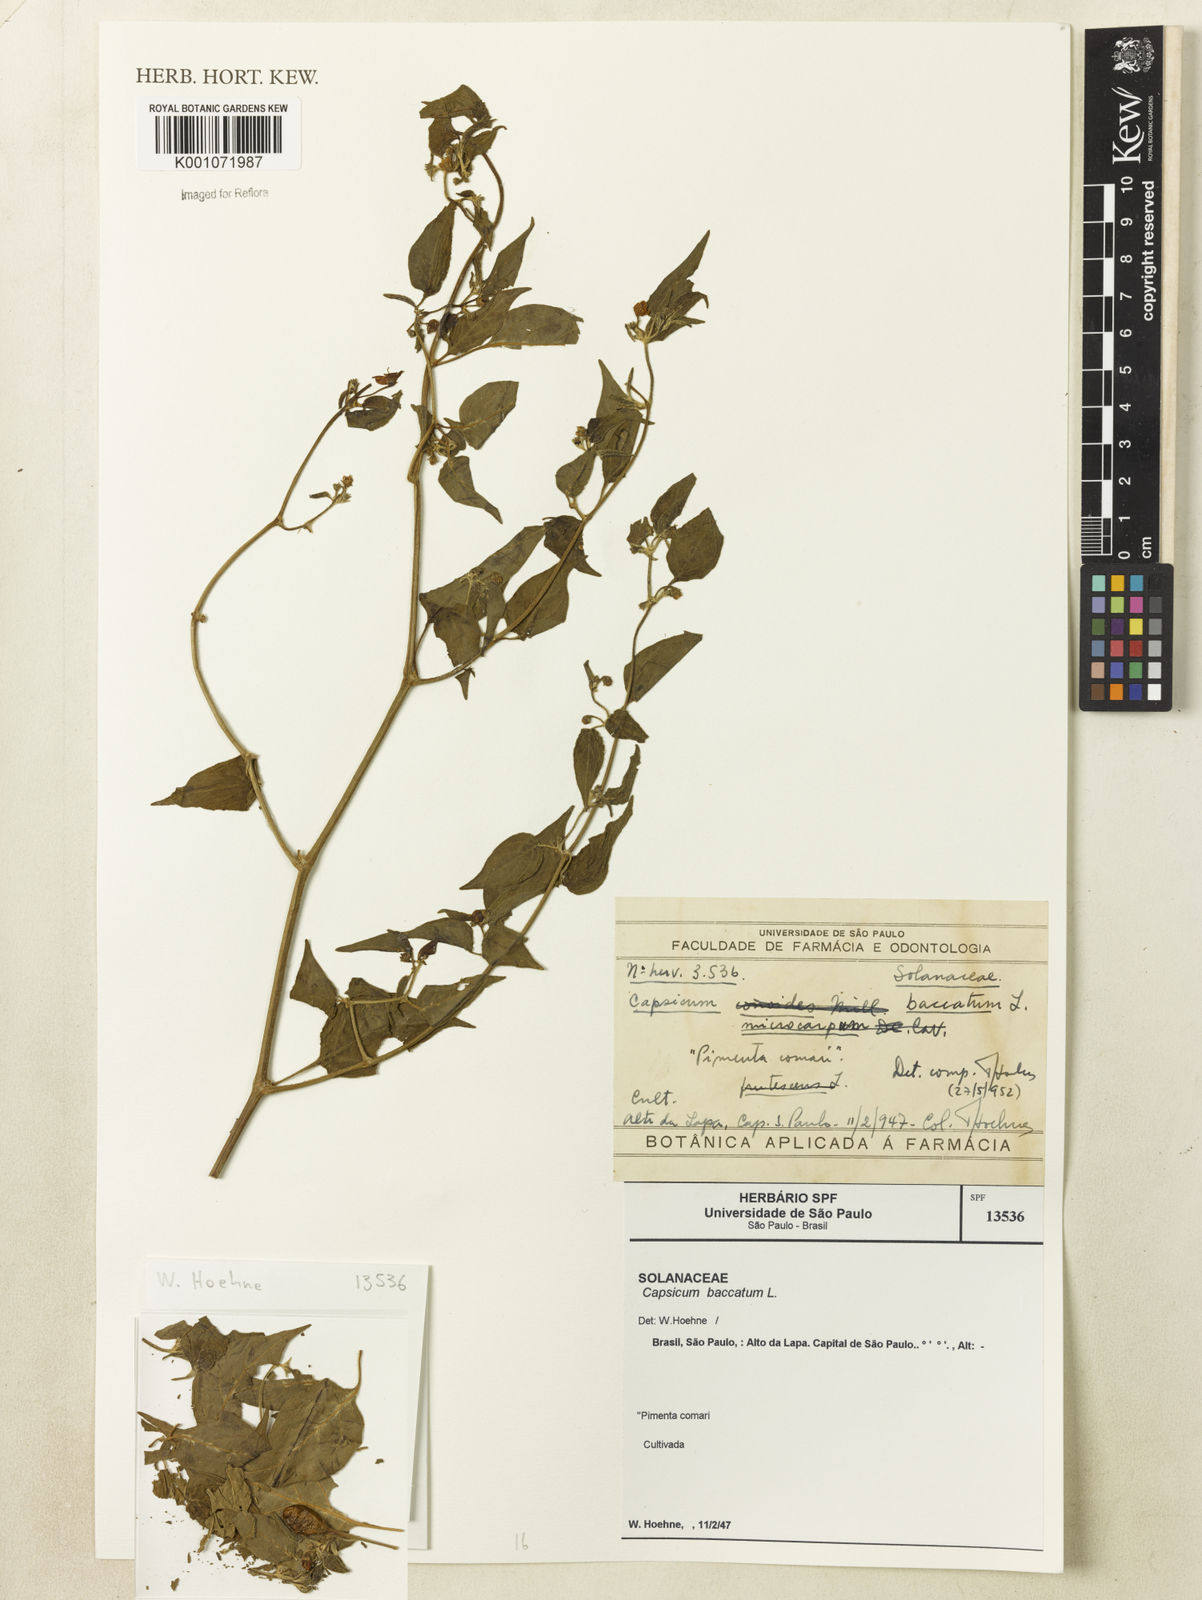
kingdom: Plantae
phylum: Tracheophyta
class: Magnoliopsida
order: Solanales
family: Solanaceae
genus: Capsicum
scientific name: Capsicum baccatum
